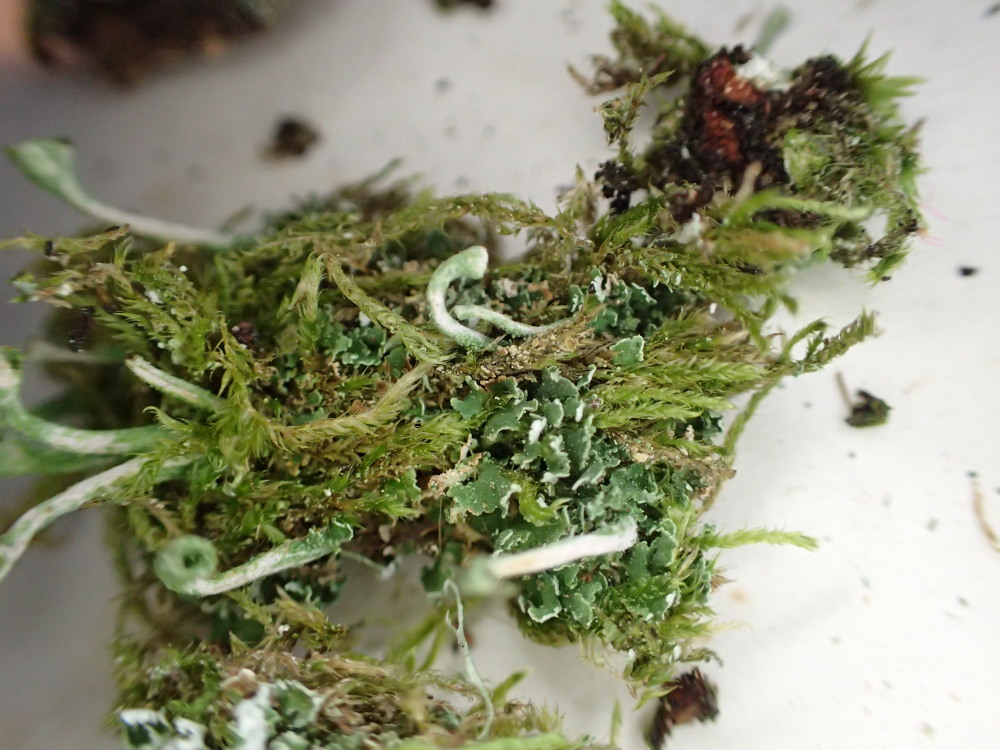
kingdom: Fungi
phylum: Ascomycota
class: Lecanoromycetes
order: Lecanorales
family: Cladoniaceae
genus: Cladonia
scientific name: Cladonia fimbriata
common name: bleggrøn bægerlav
